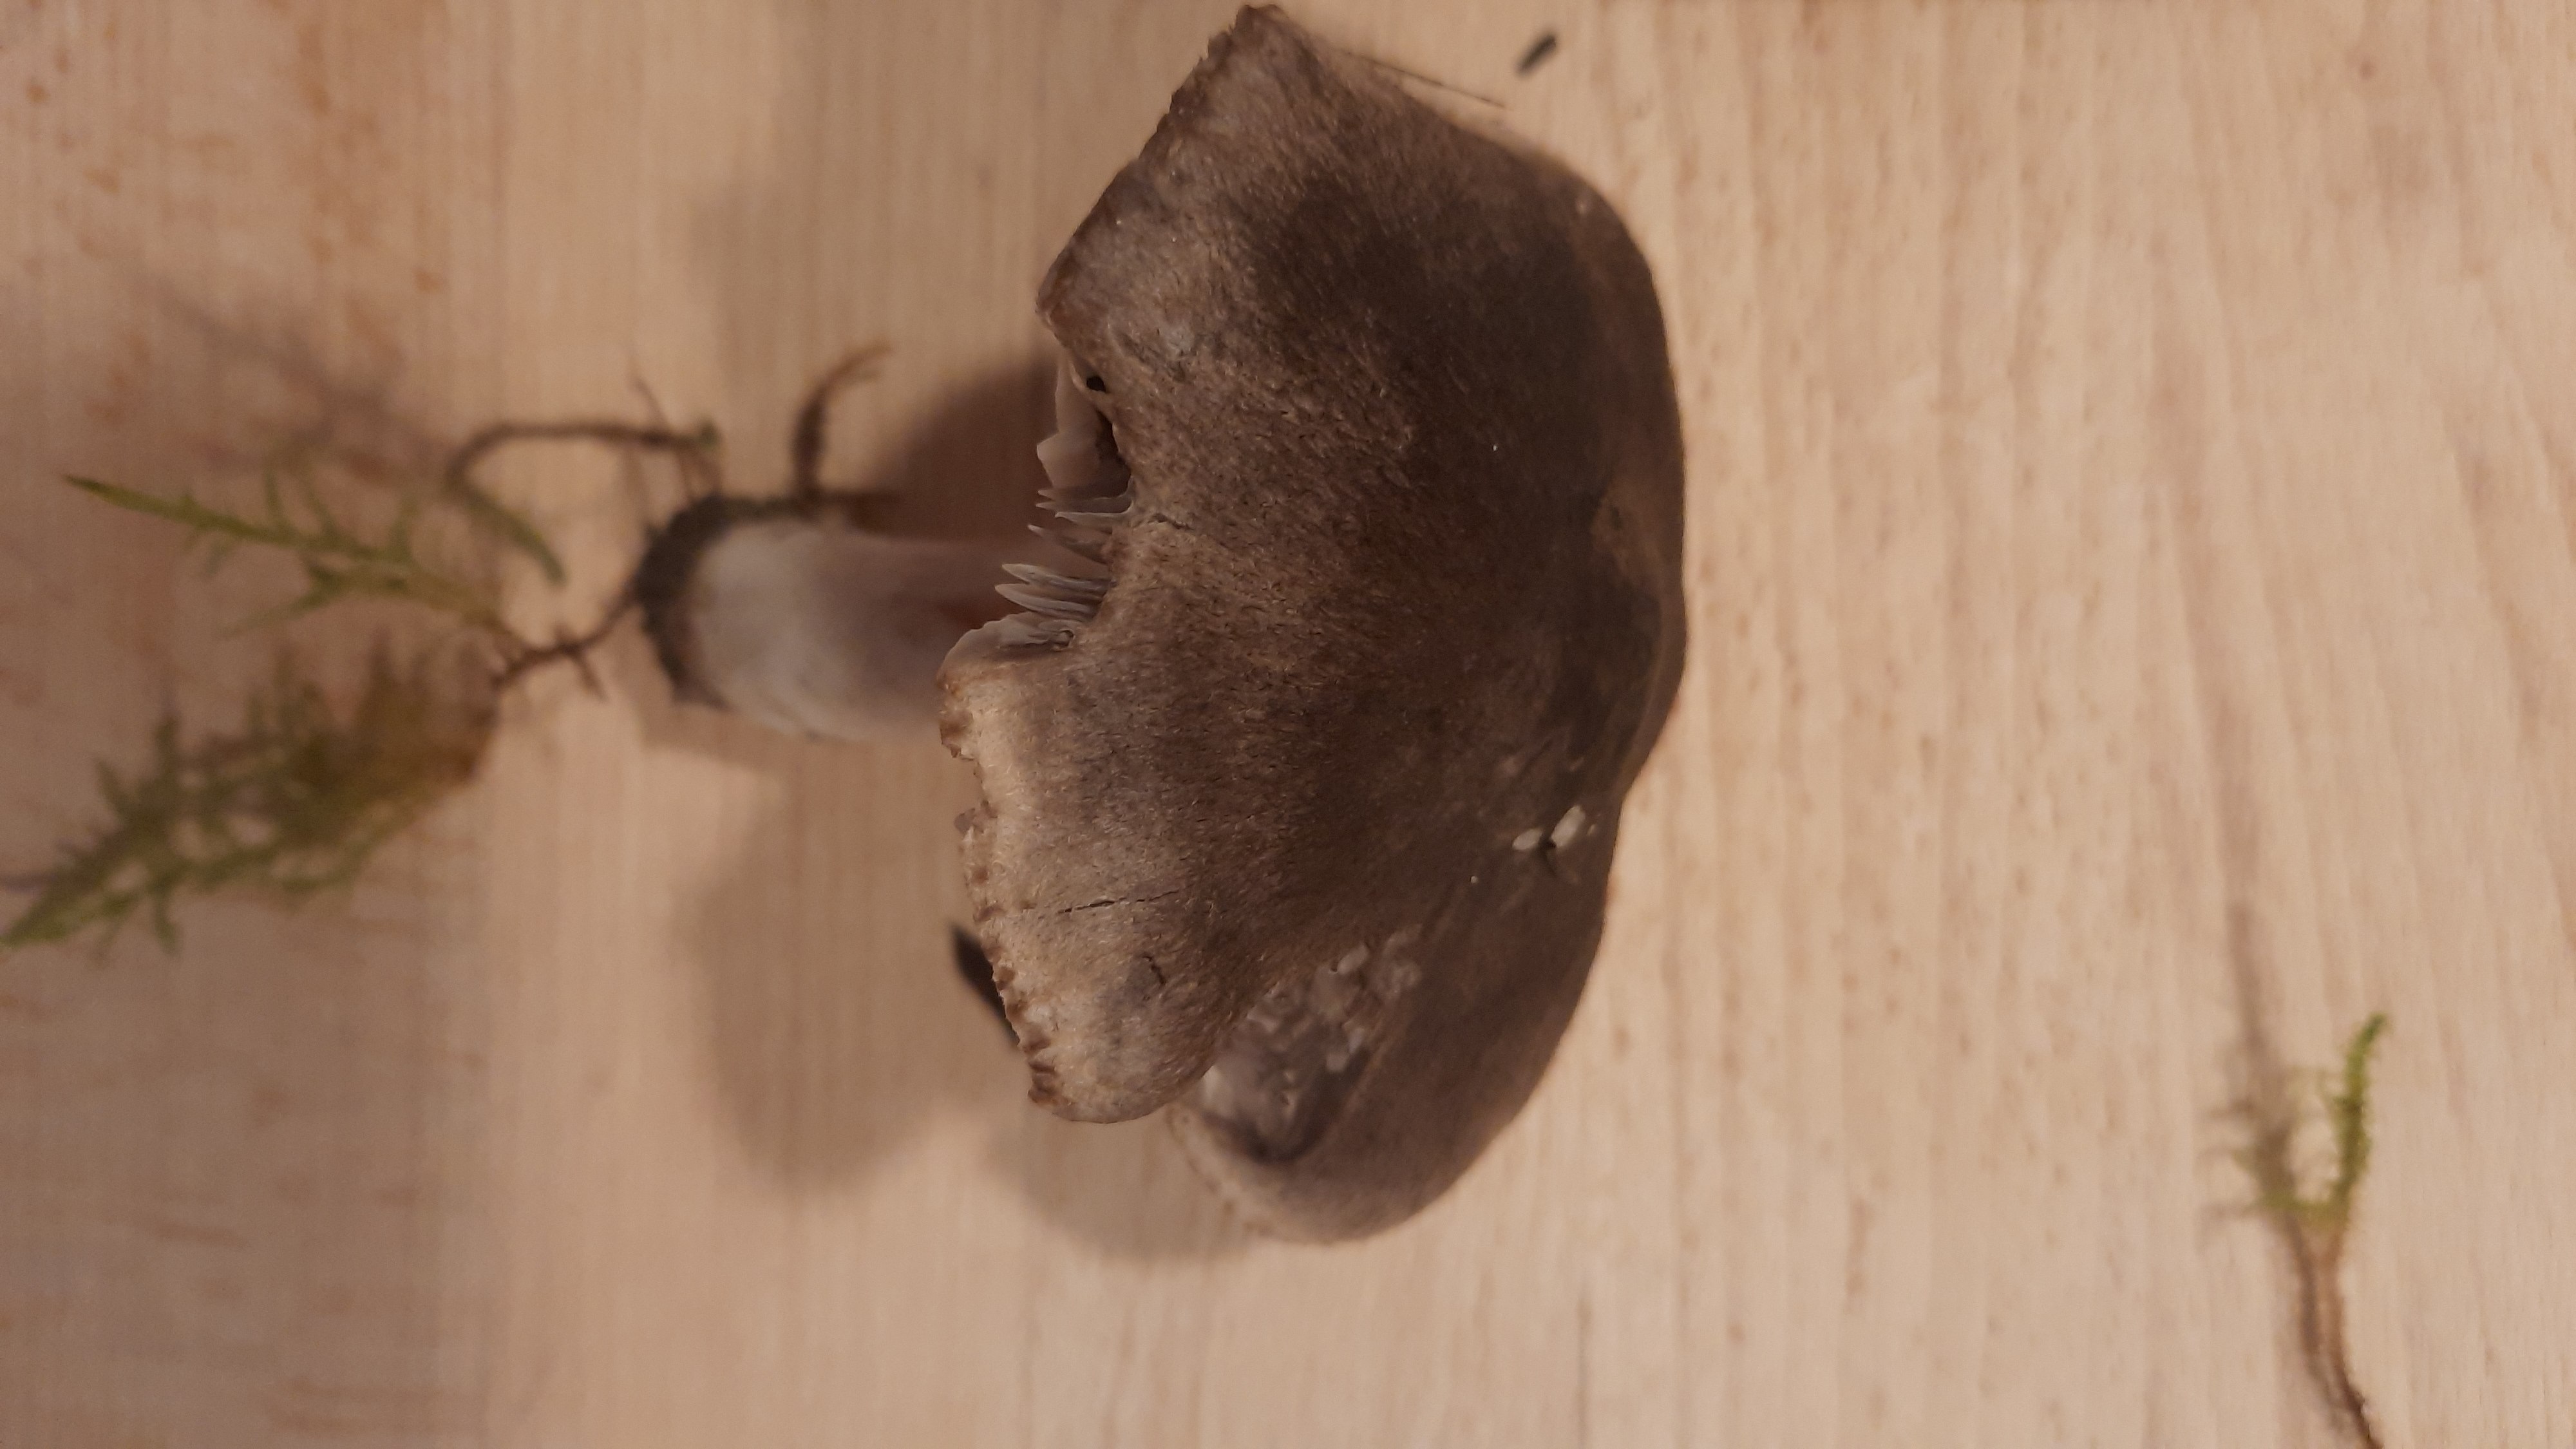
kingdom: Fungi
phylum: Basidiomycota
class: Agaricomycetes
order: Agaricales
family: Tricholomataceae
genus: Tricholoma
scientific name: Tricholoma terreum
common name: jordfarvet ridderhat
